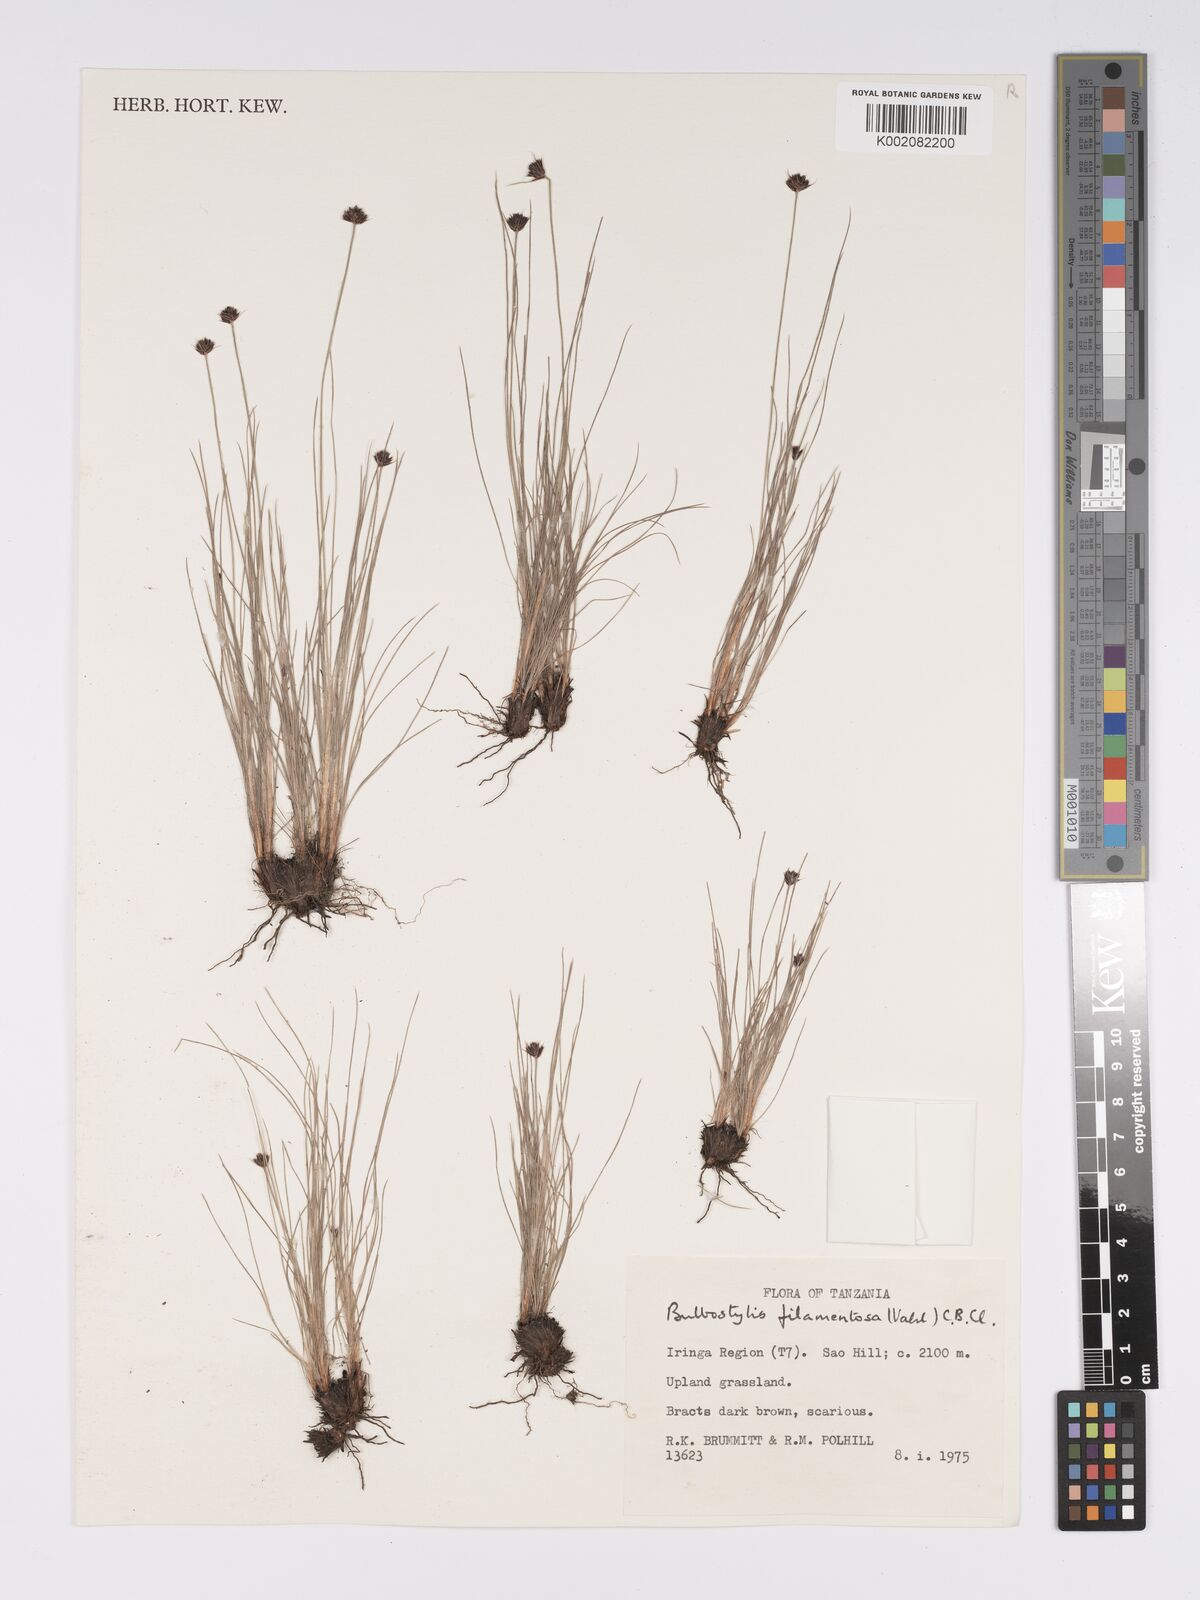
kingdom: Plantae
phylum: Tracheophyta
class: Liliopsida
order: Poales
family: Cyperaceae
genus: Bulbostylis
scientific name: Bulbostylis filamentosa
